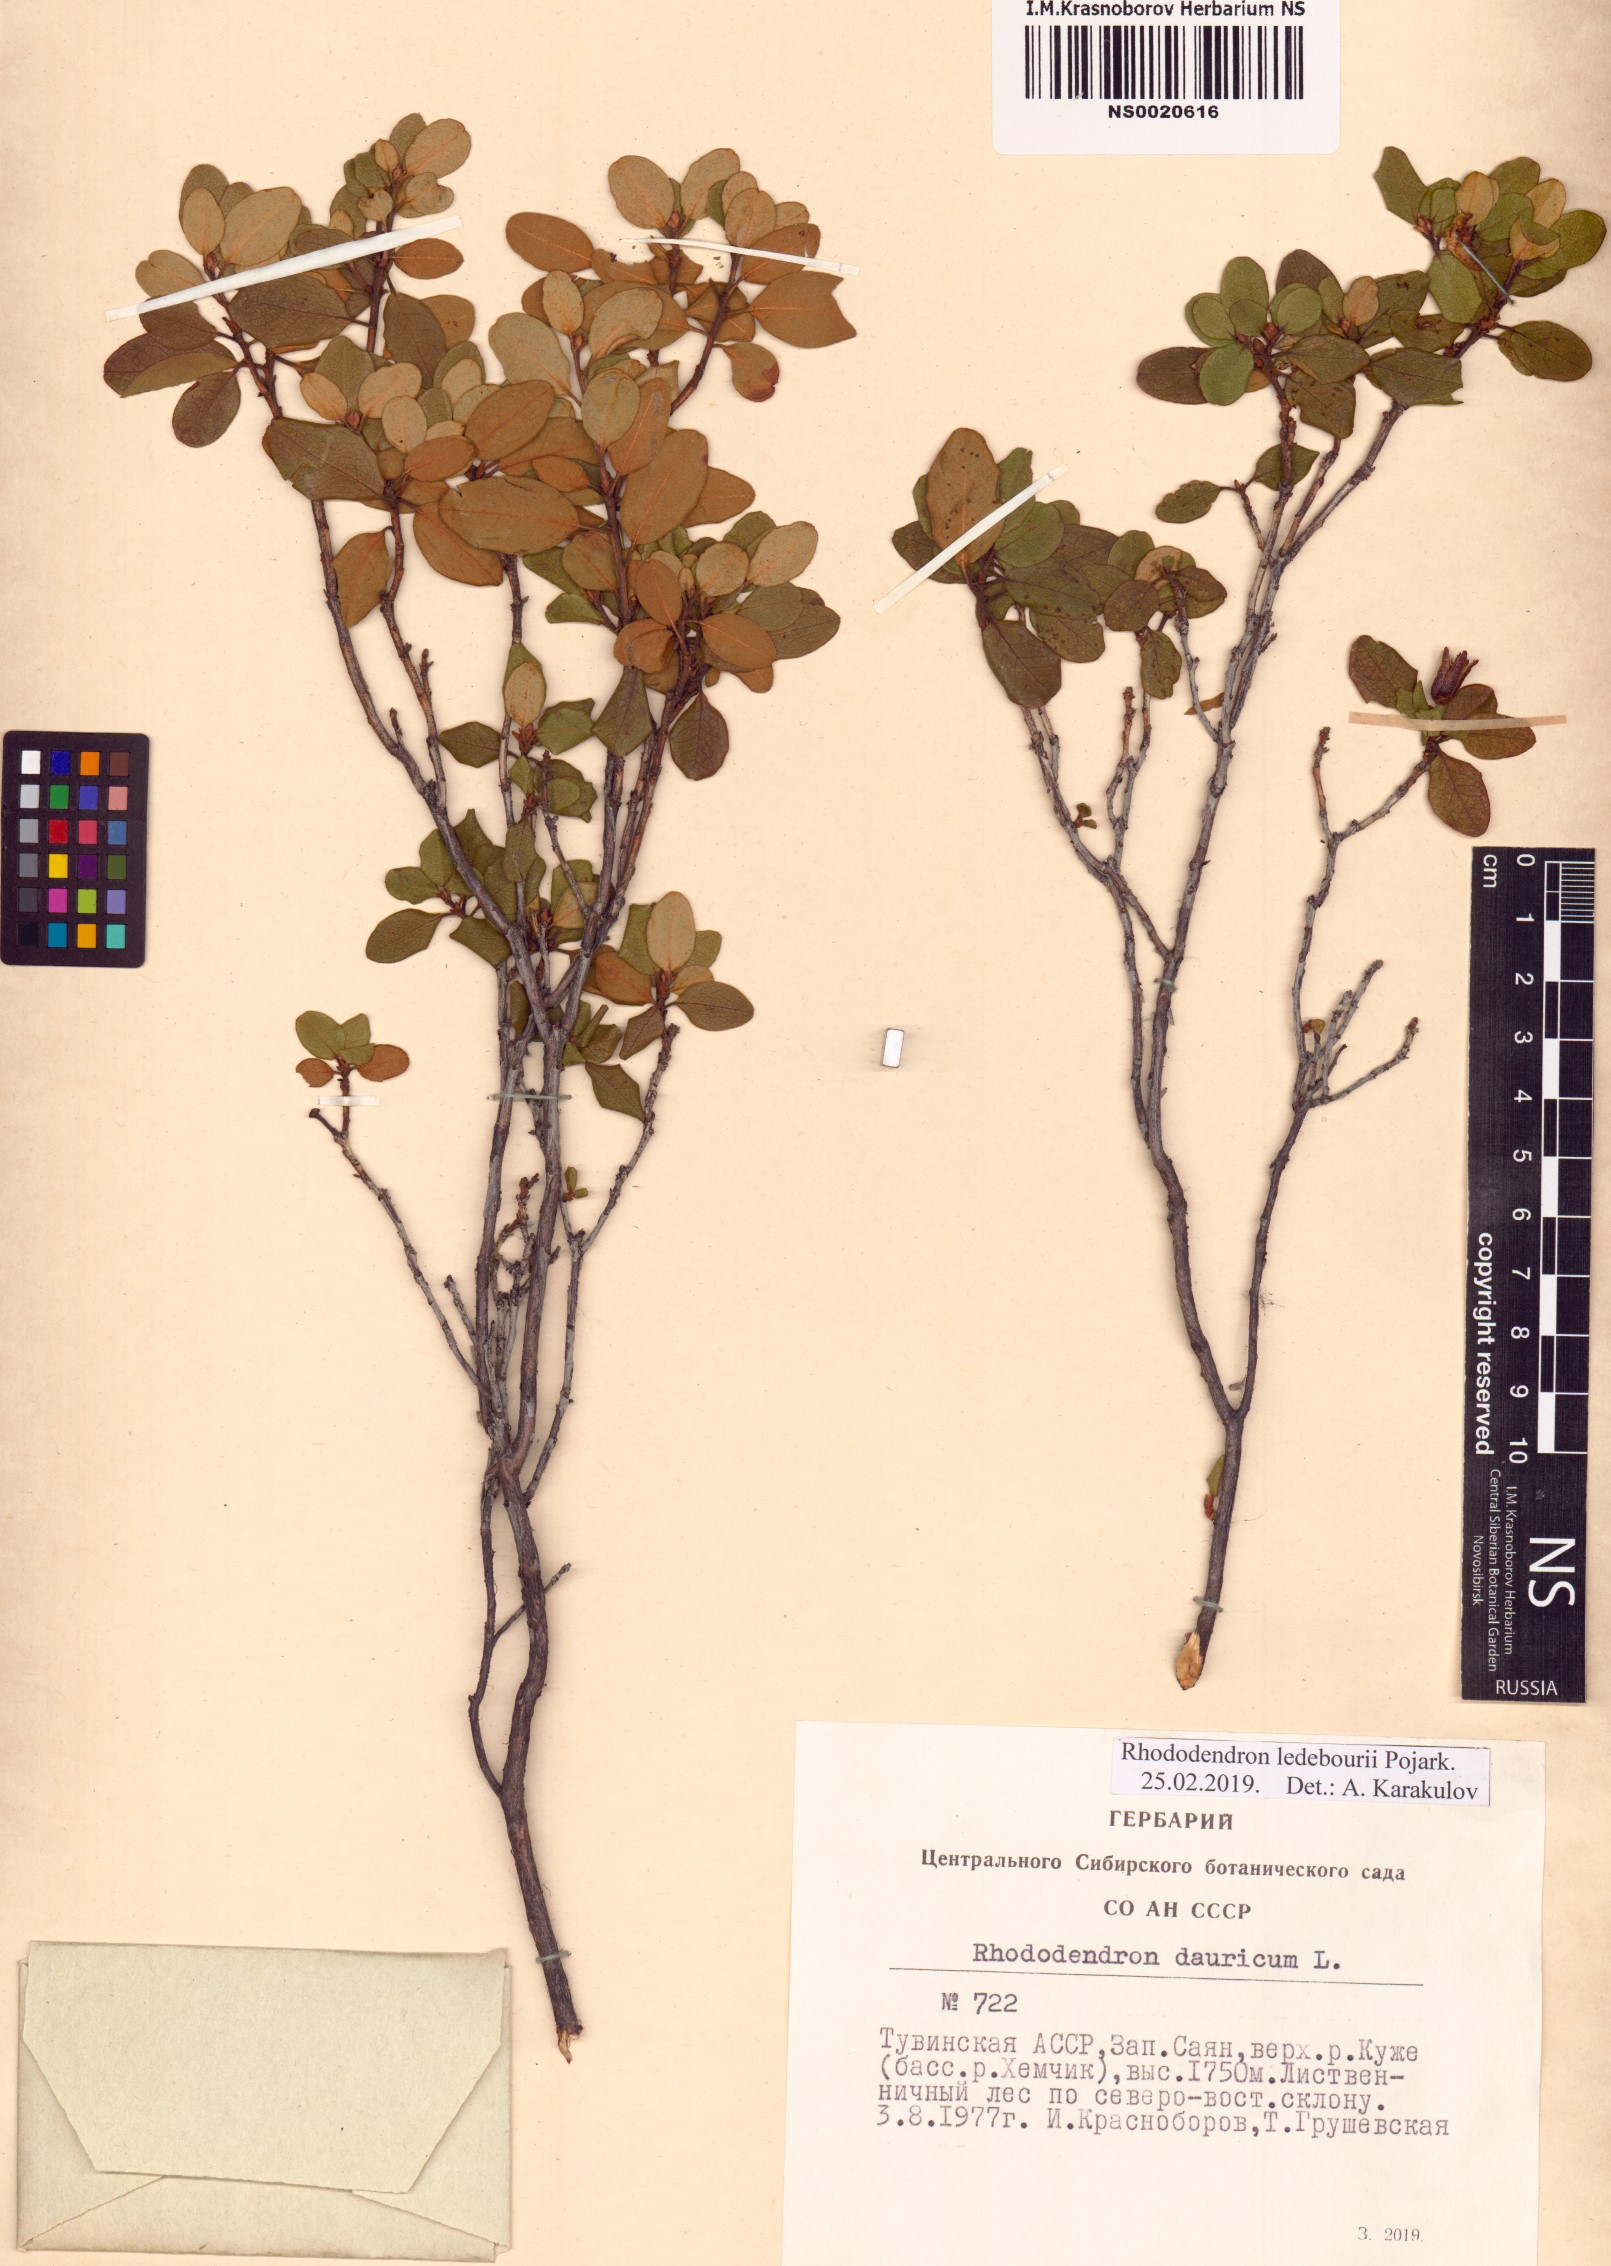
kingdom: Plantae
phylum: Tracheophyta
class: Magnoliopsida
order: Ericales
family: Ericaceae
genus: Rhododendron
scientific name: Rhododendron dauricum
